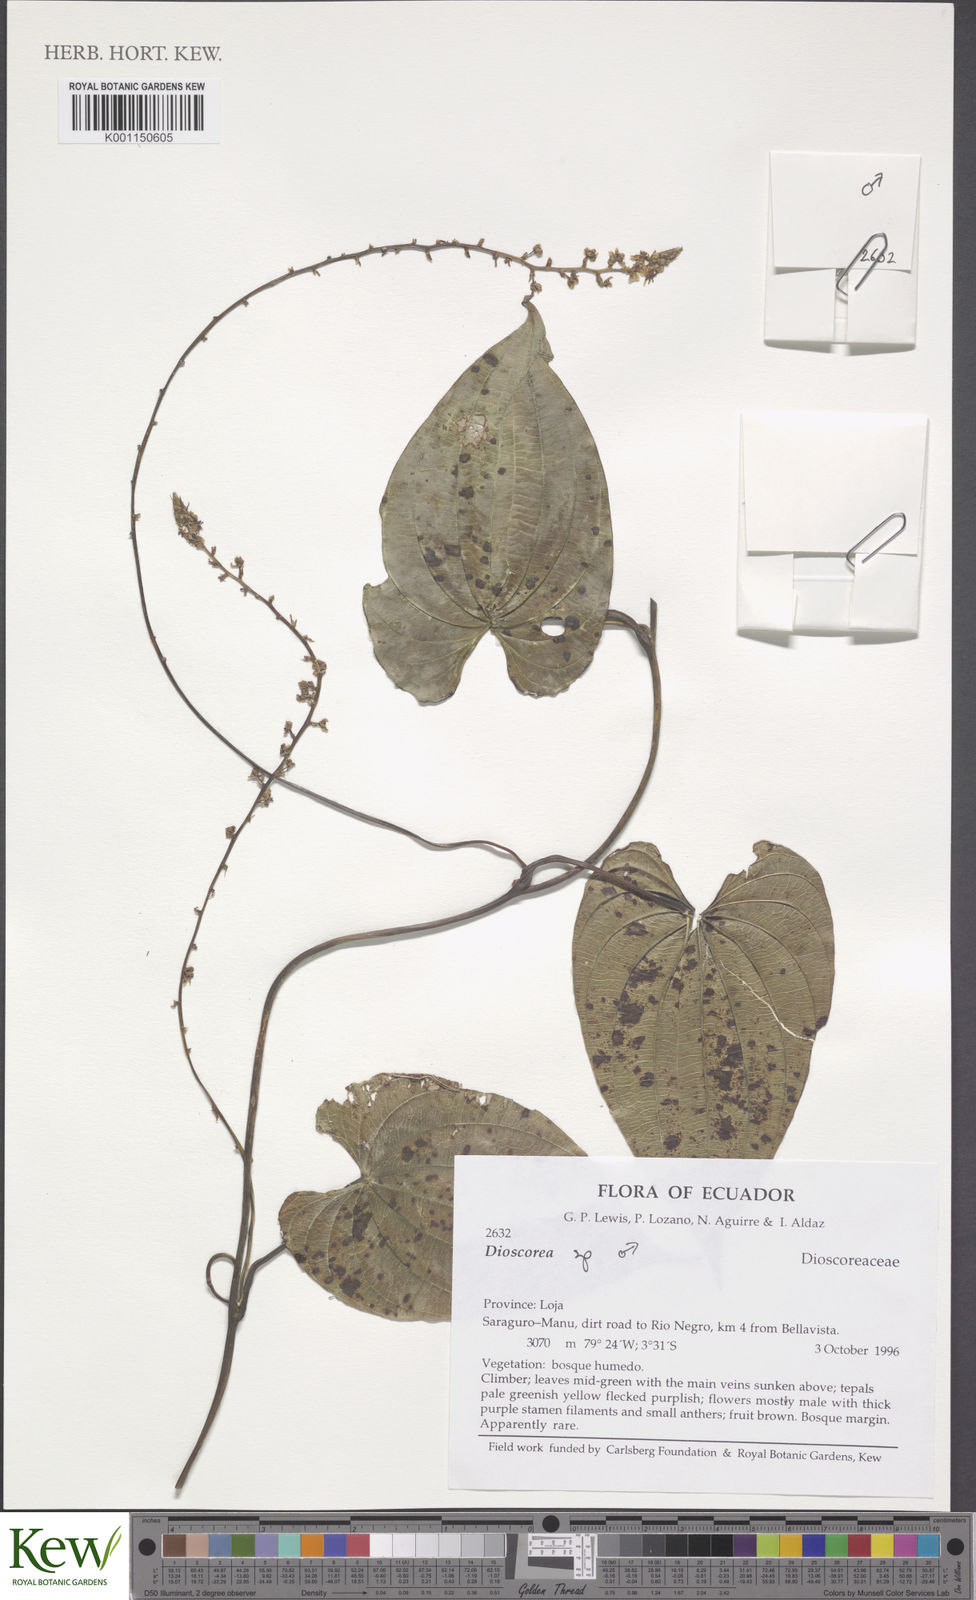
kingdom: Plantae
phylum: Tracheophyta
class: Liliopsida
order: Dioscoreales
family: Dioscoreaceae
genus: Dioscorea
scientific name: Dioscorea
